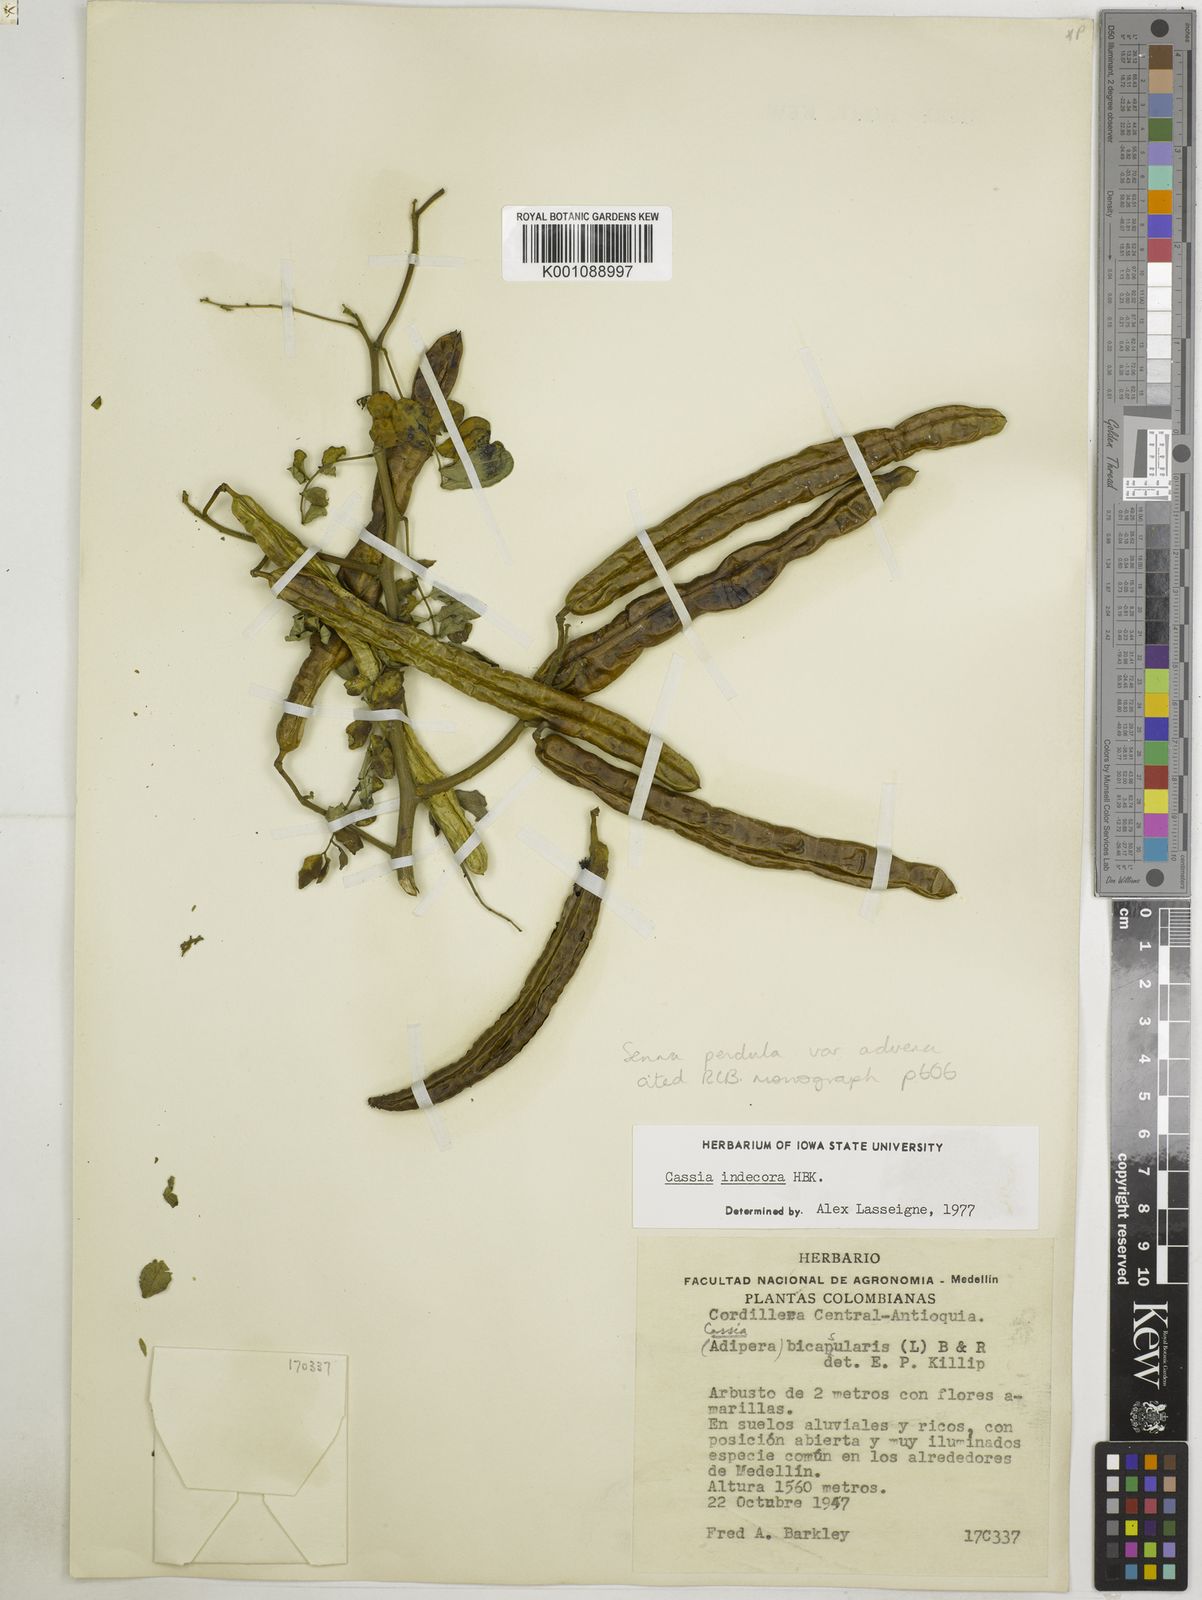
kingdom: Plantae
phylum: Tracheophyta
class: Magnoliopsida
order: Fabales
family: Fabaceae
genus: Senna
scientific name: Senna pendula
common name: Easter cassia
